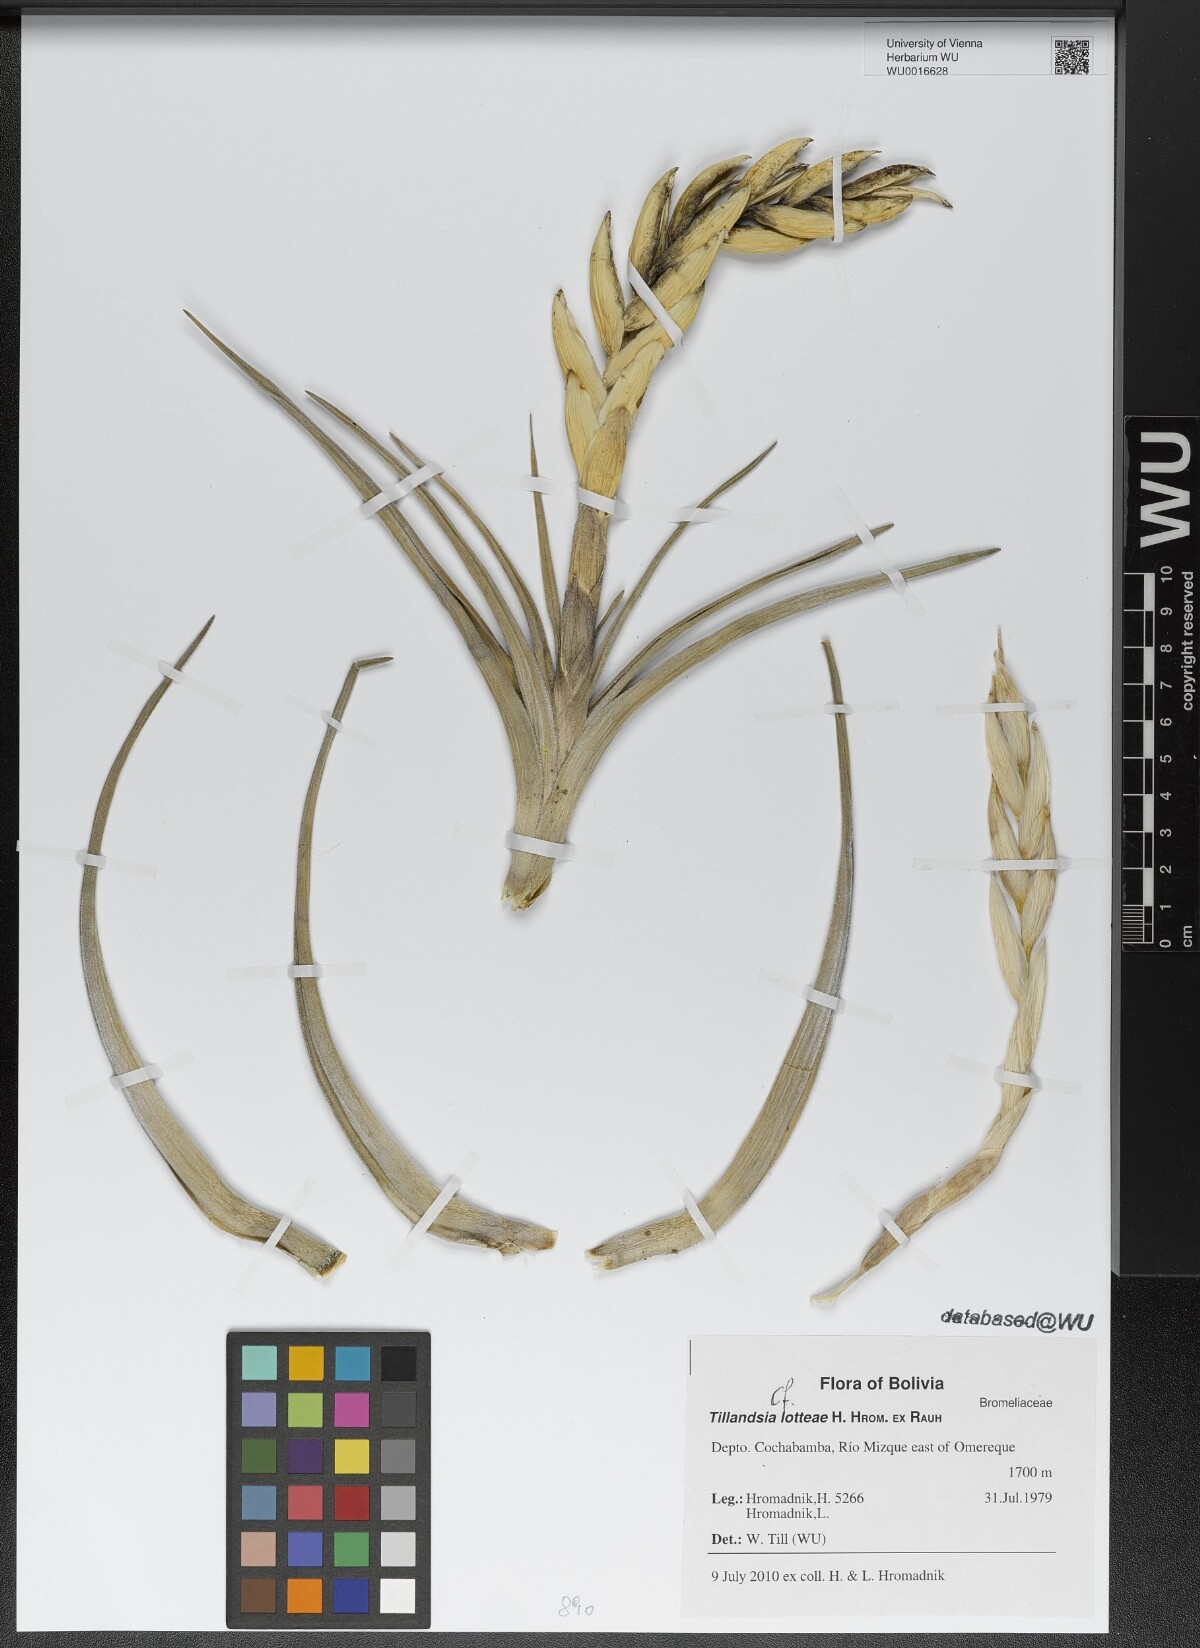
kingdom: Plantae
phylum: Tracheophyta
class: Liliopsida
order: Poales
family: Bromeliaceae
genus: Tillandsia
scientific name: Tillandsia lotteae
